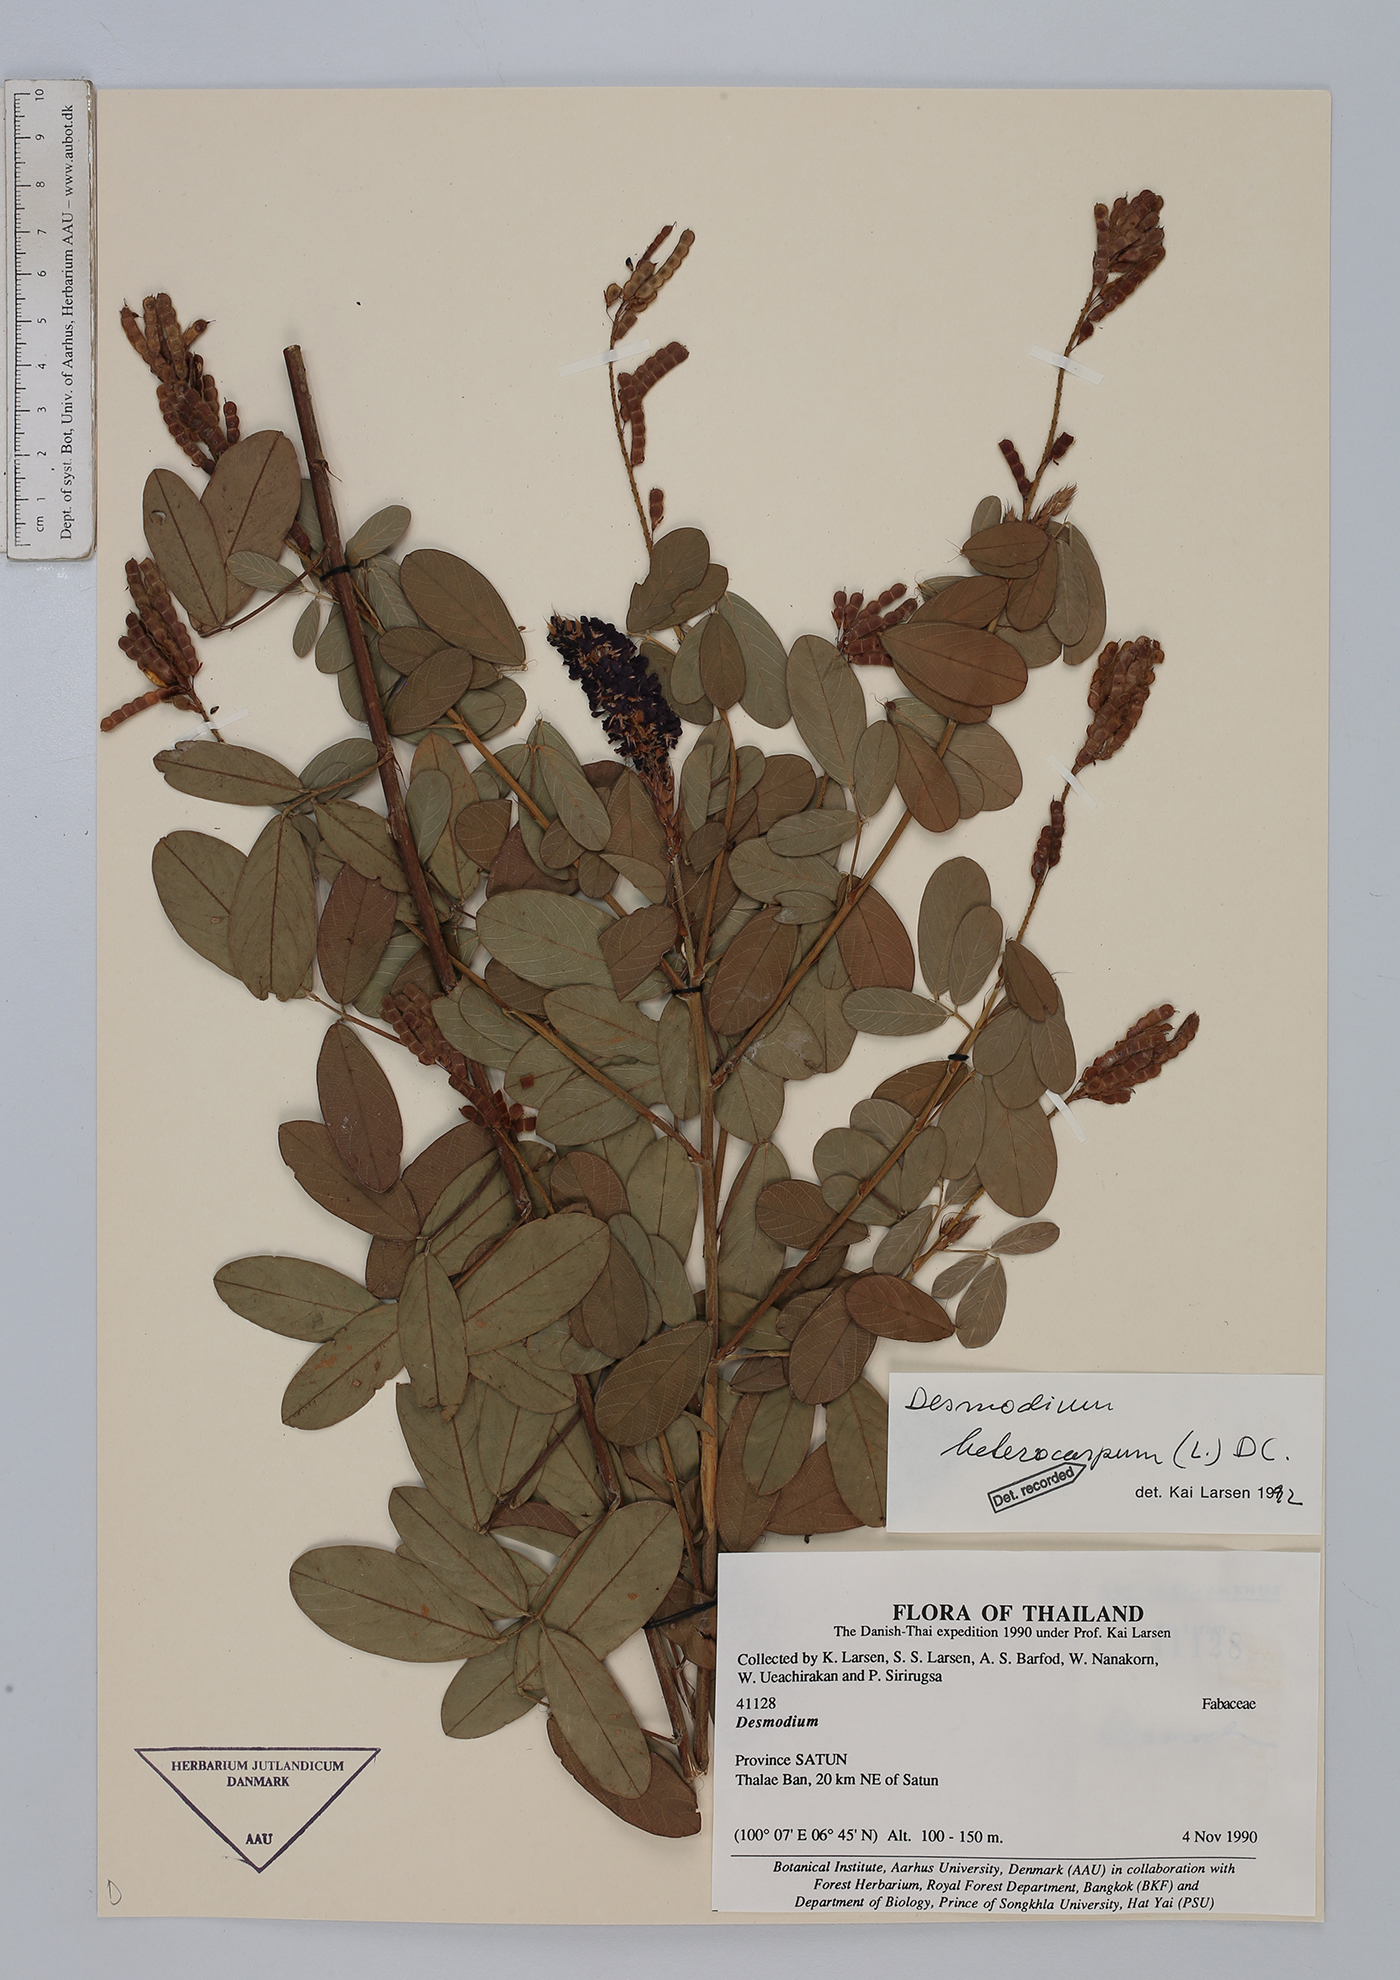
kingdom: Plantae
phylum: Tracheophyta
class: Magnoliopsida
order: Fabales
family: Fabaceae
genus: Grona
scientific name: Grona heterocarpos
